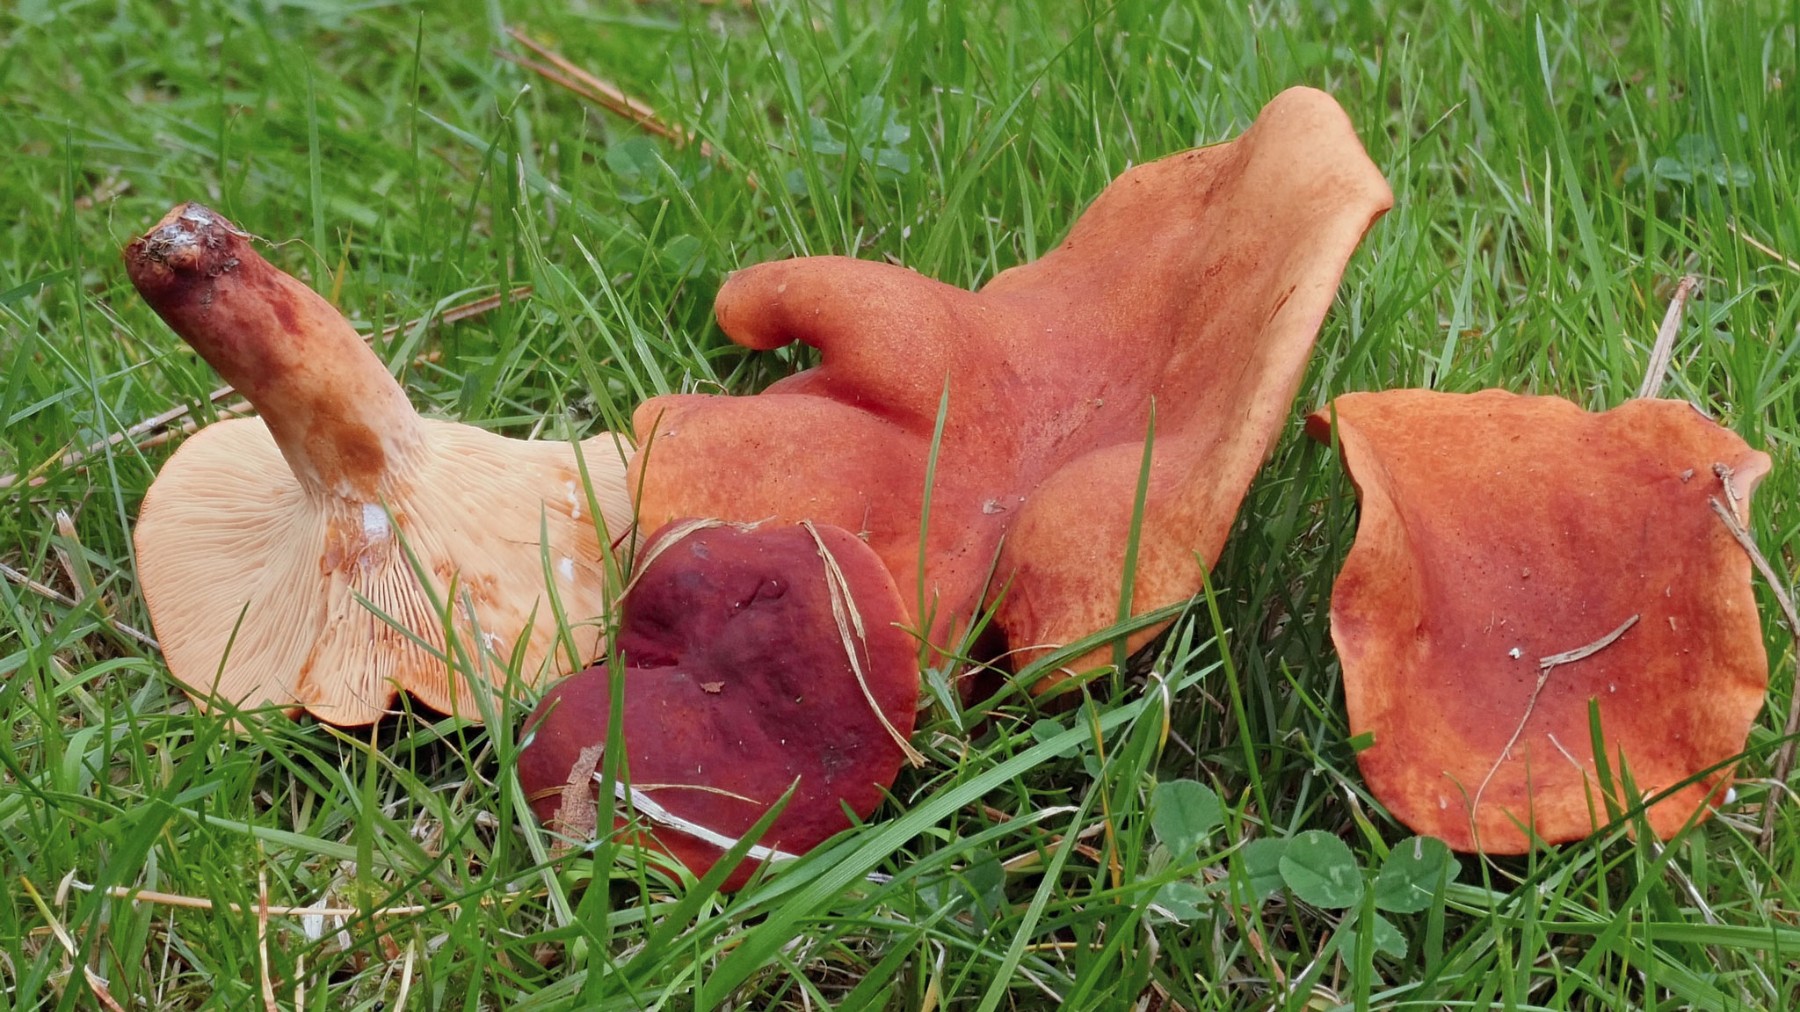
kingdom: Fungi
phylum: Basidiomycota
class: Agaricomycetes
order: Russulales
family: Russulaceae
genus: Lactarius
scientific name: Lactarius fulvissimus
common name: ræve-mælkehat
